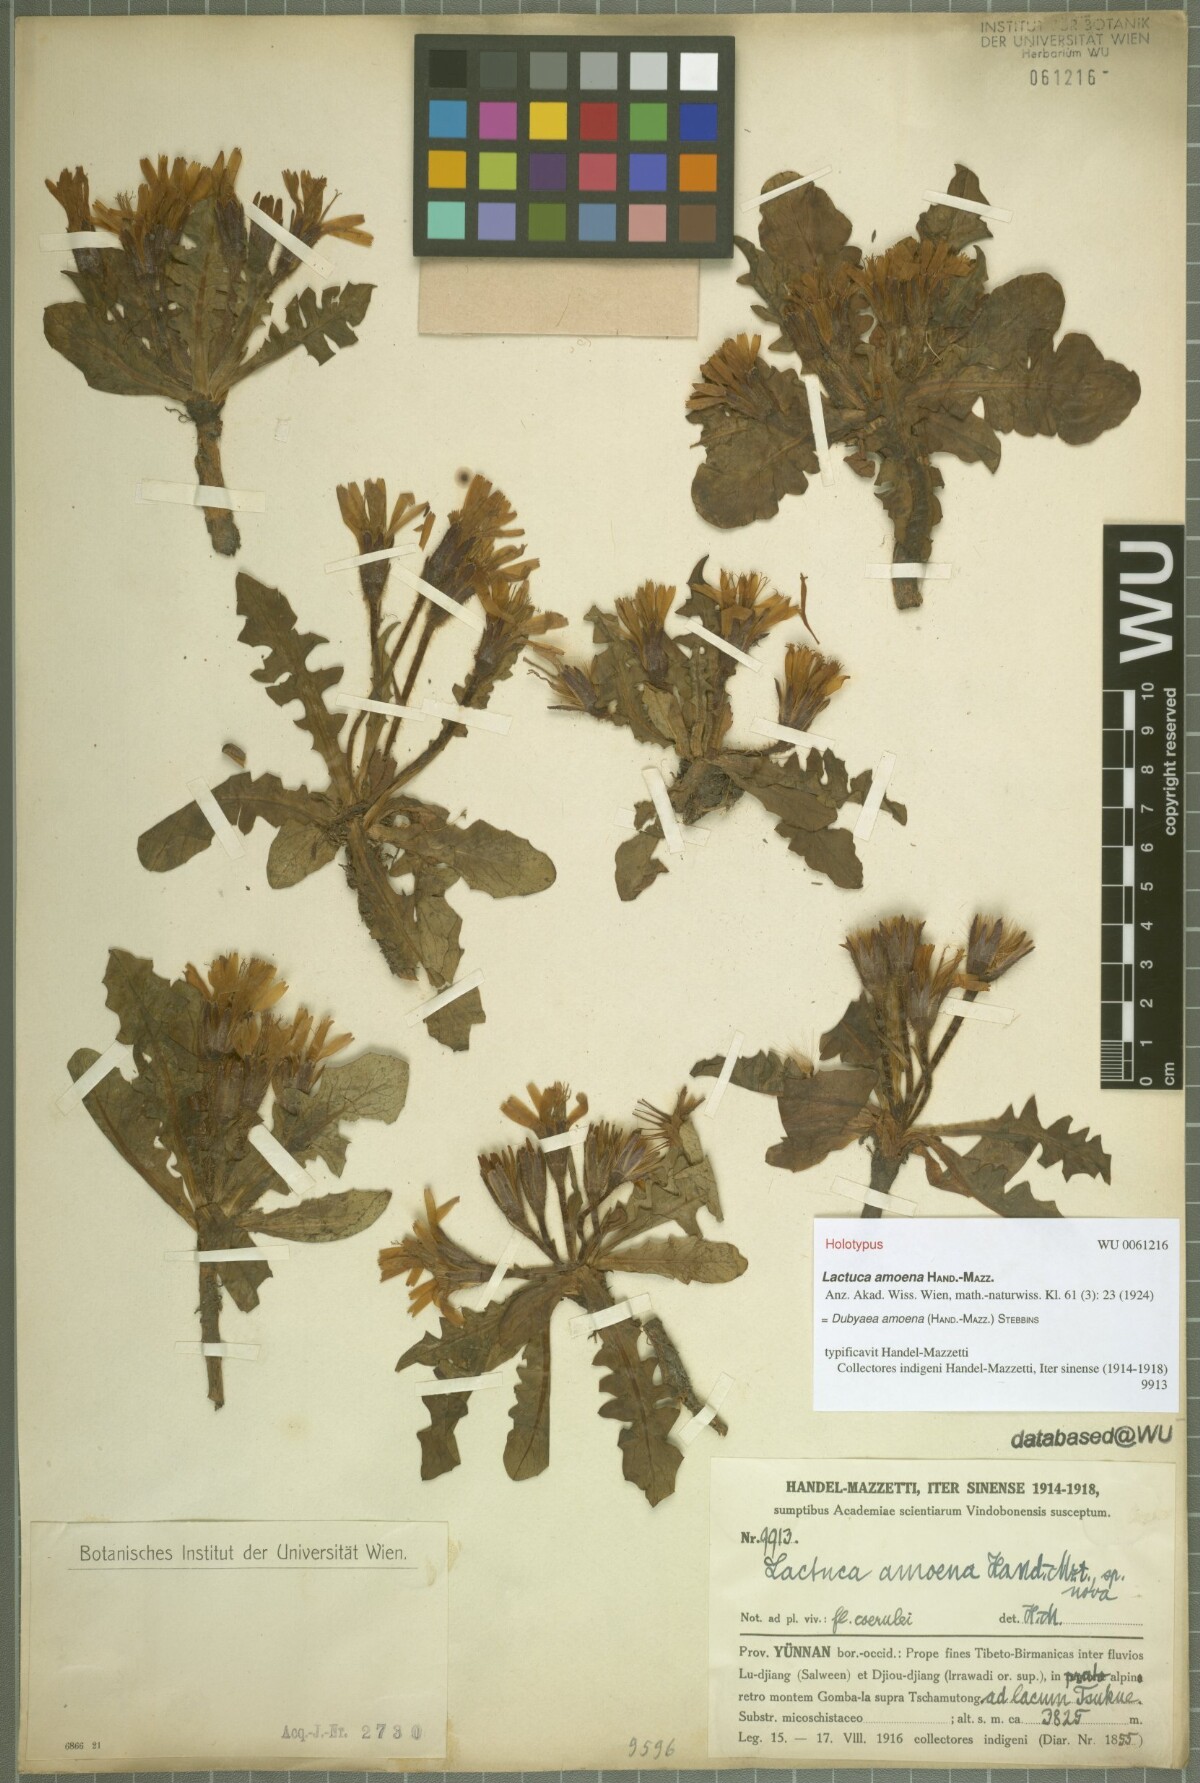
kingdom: Plantae
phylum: Tracheophyta
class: Magnoliopsida
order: Asterales
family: Asteraceae
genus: Lihengia
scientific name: Lihengia amoena
